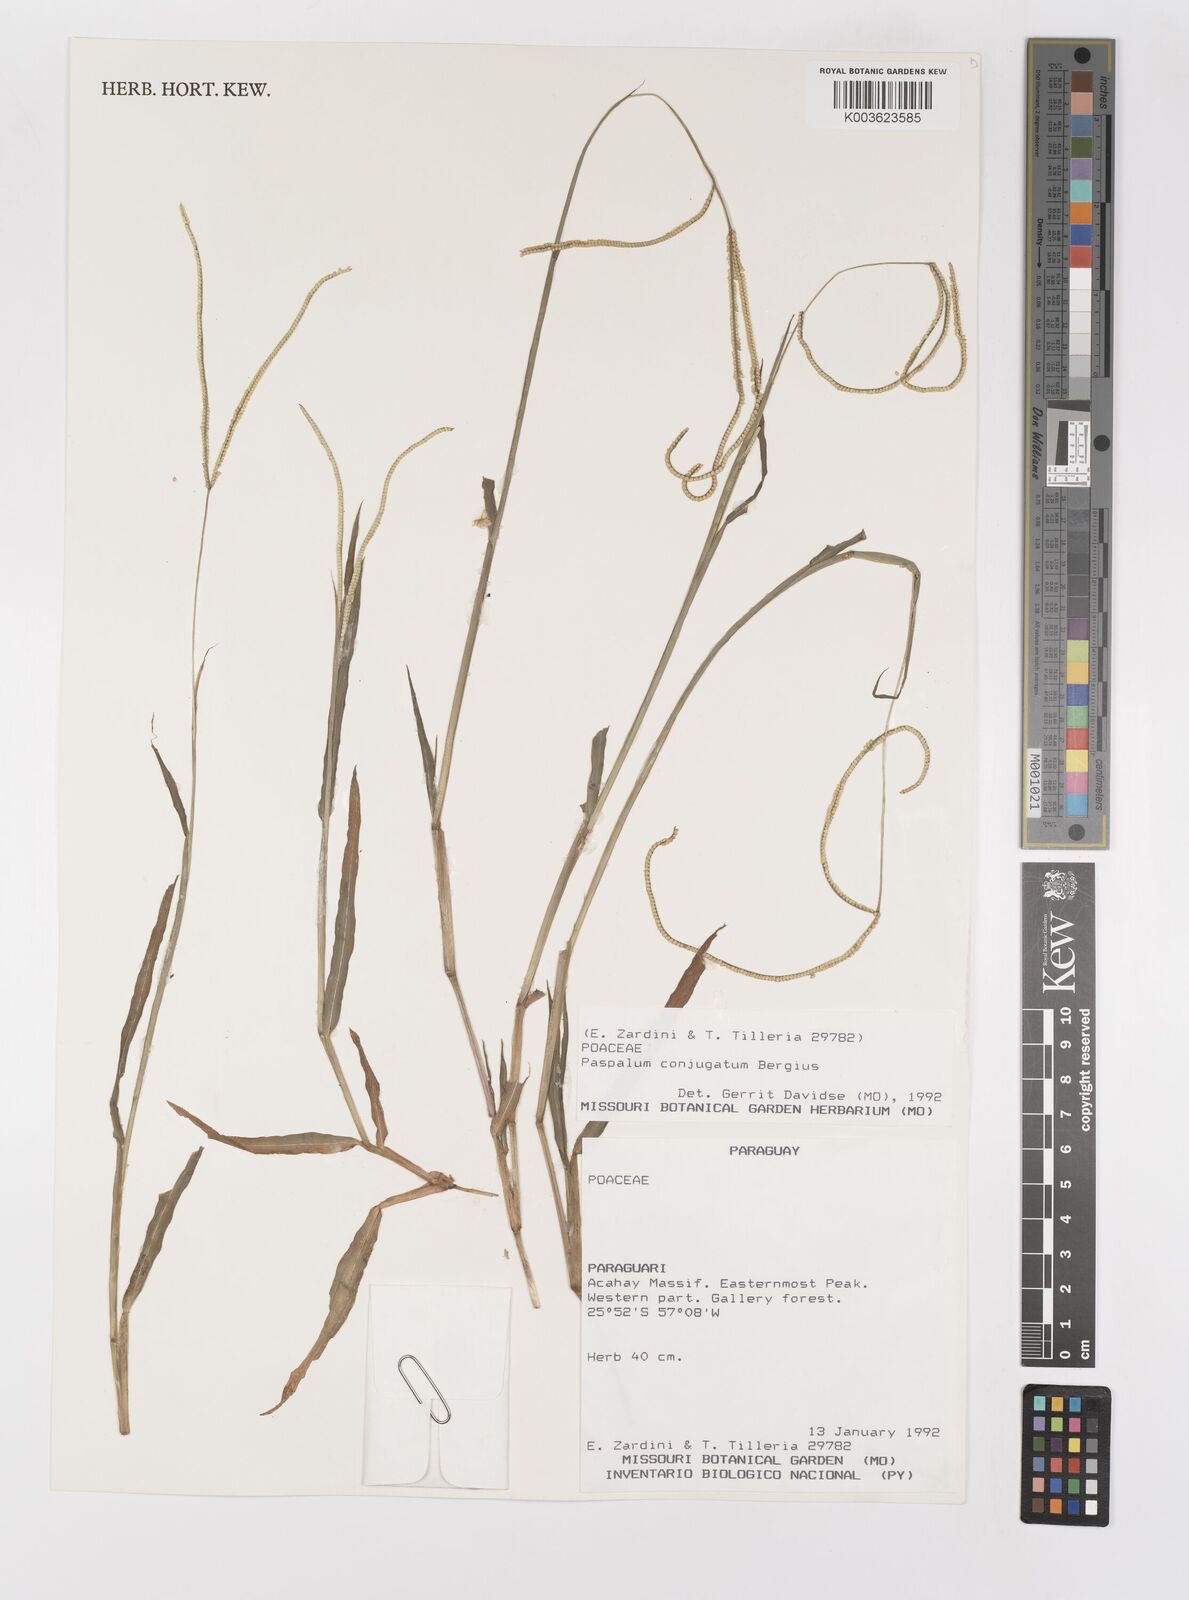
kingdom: Plantae
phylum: Tracheophyta
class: Liliopsida
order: Poales
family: Poaceae
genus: Paspalum
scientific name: Paspalum conjugatum
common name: Hilograss
